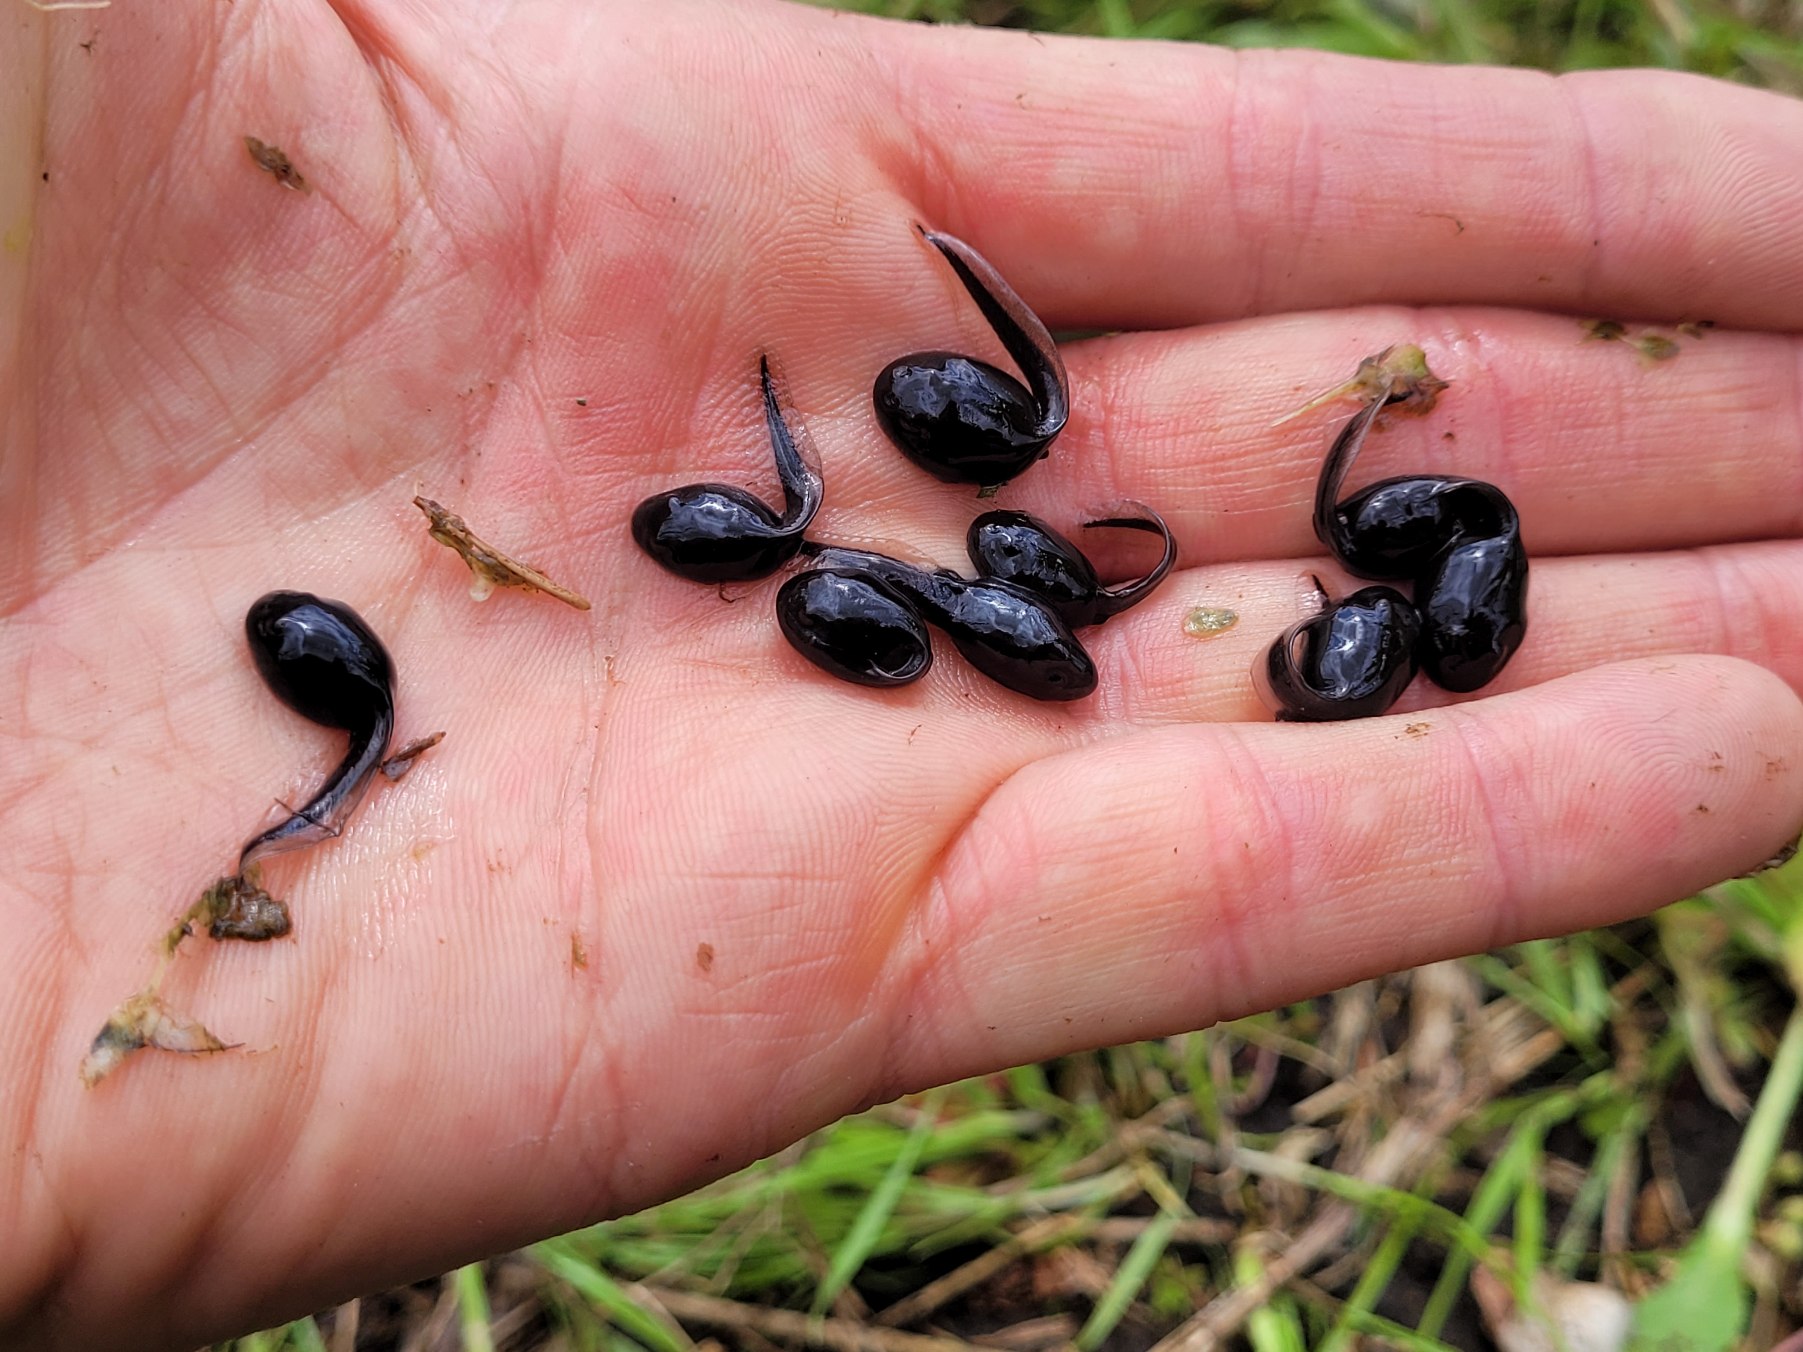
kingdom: Animalia
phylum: Chordata
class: Amphibia
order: Anura
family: Bufonidae
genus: Bufo
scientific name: Bufo bufo
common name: Skrubtudse
